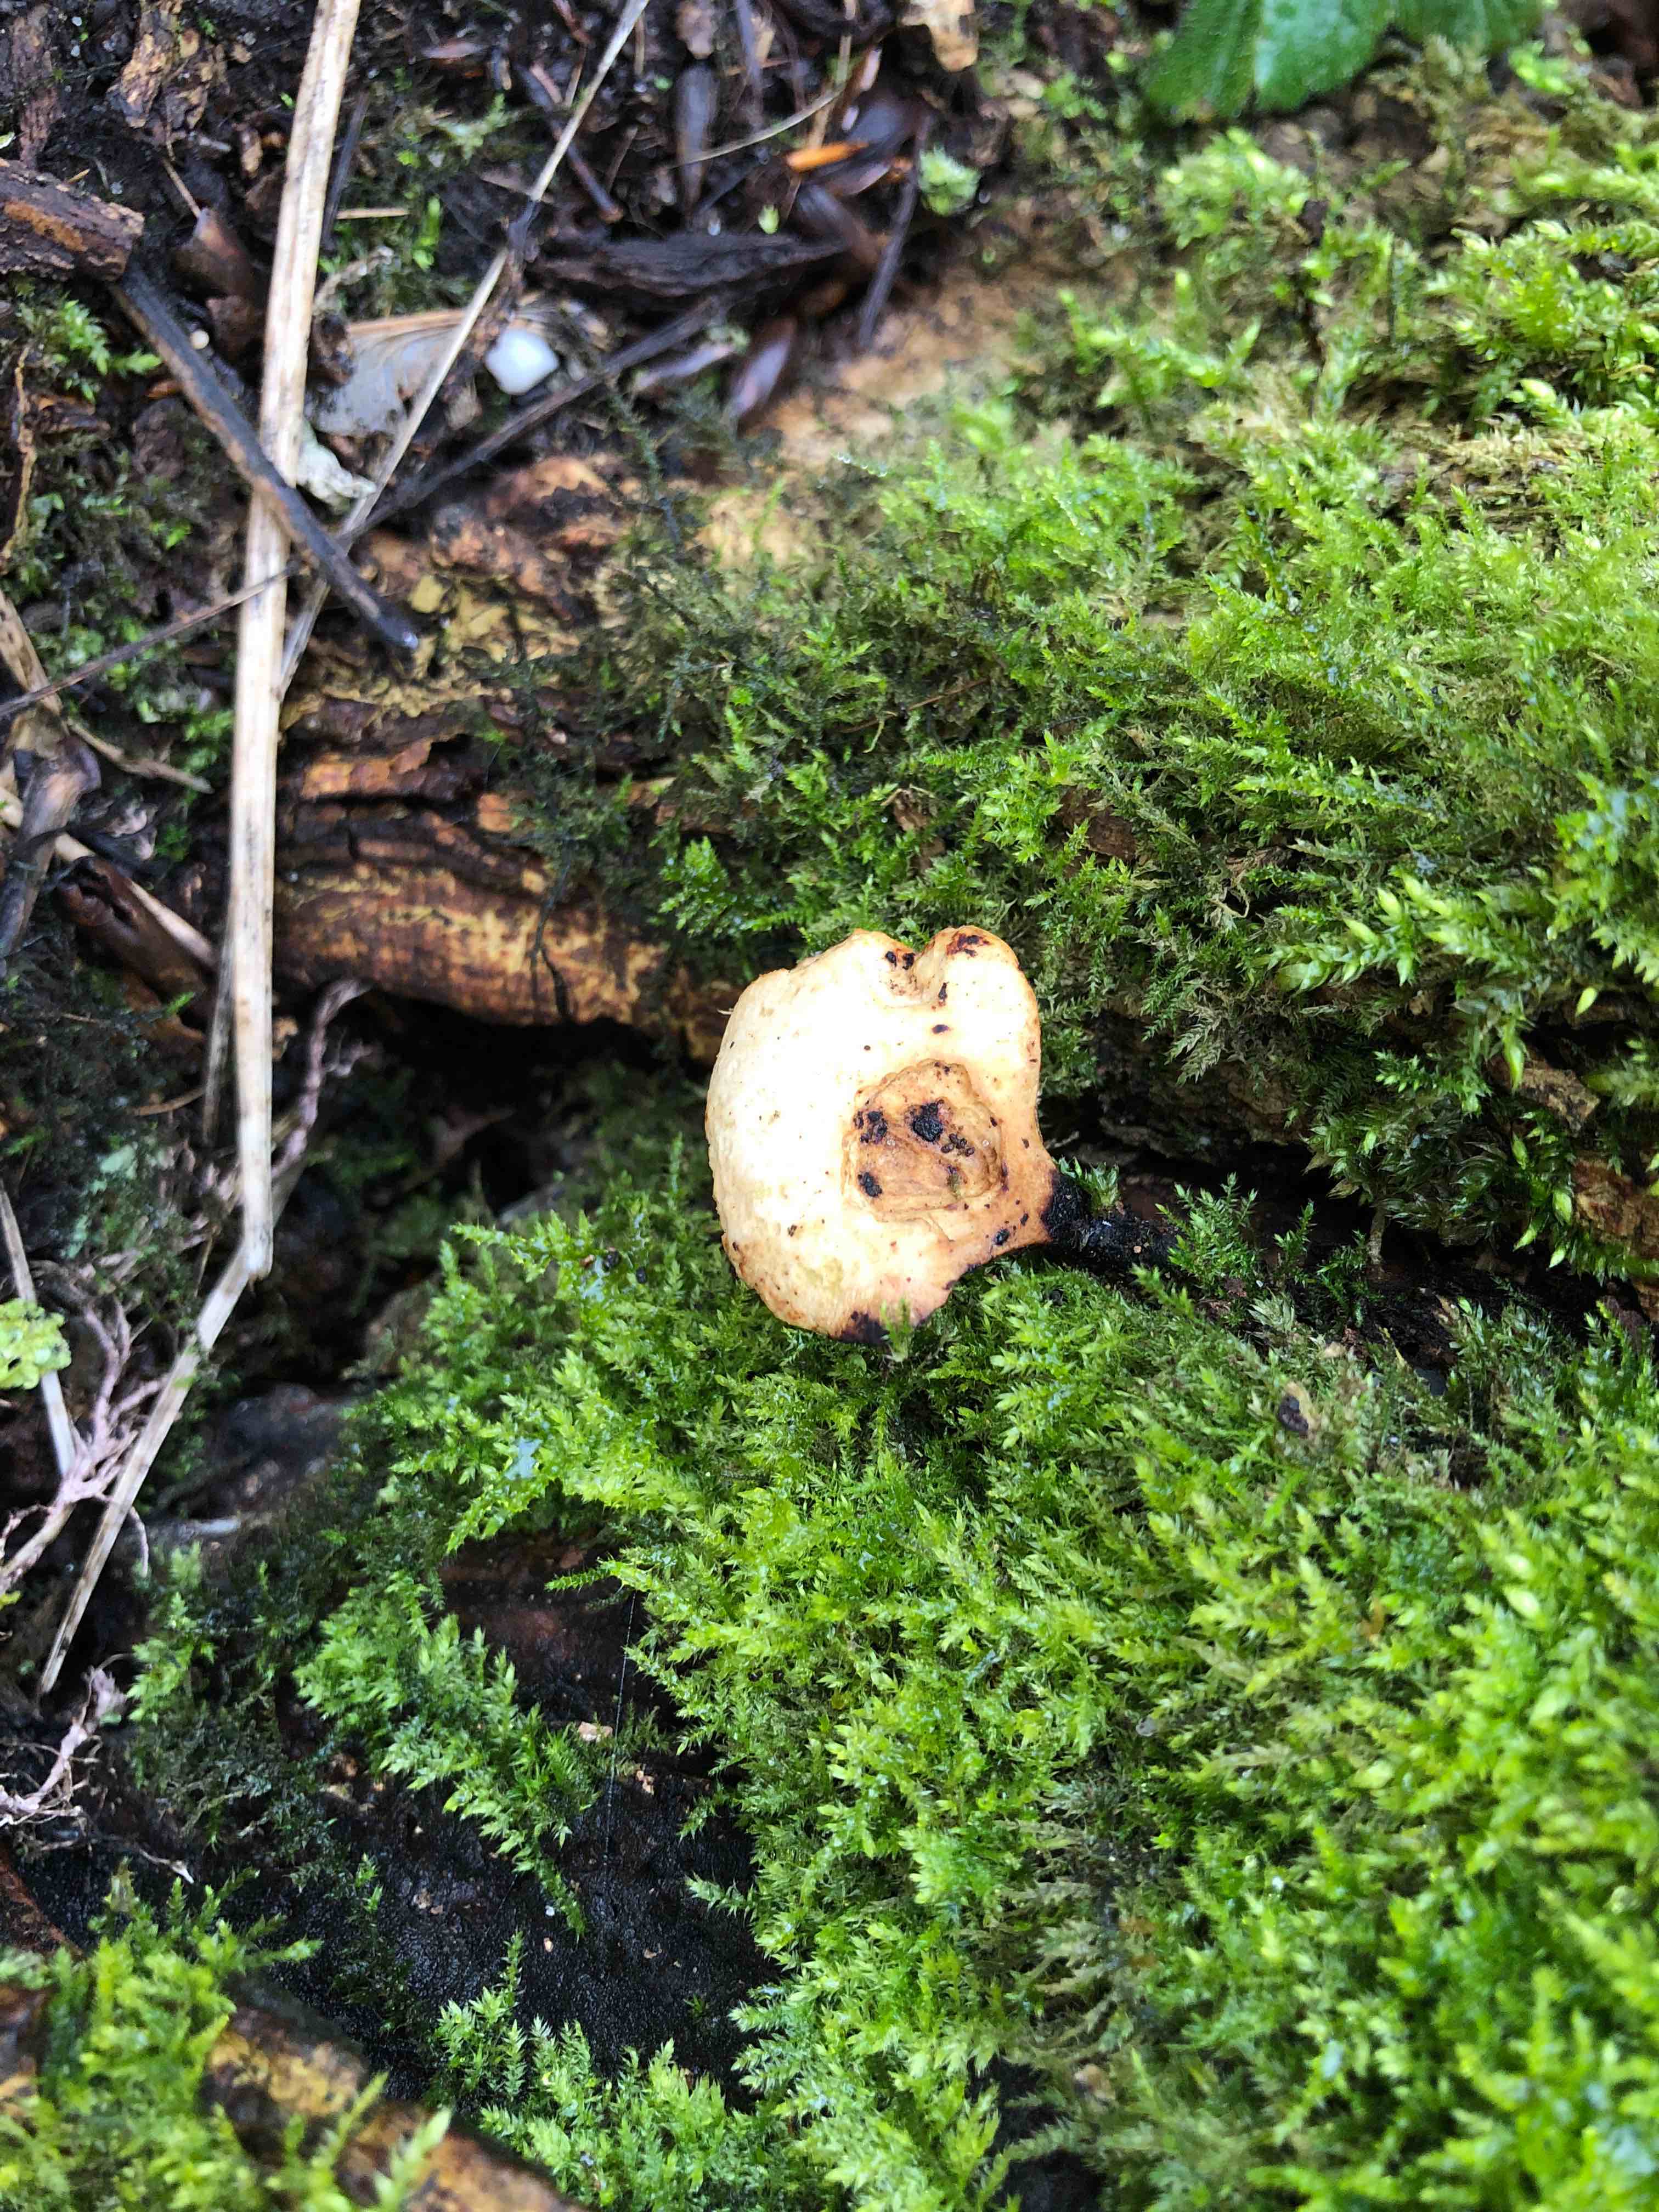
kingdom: Fungi
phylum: Basidiomycota
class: Agaricomycetes
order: Polyporales
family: Polyporaceae
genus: Cerioporus
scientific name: Cerioporus varius
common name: foranderlig stilkporesvamp
